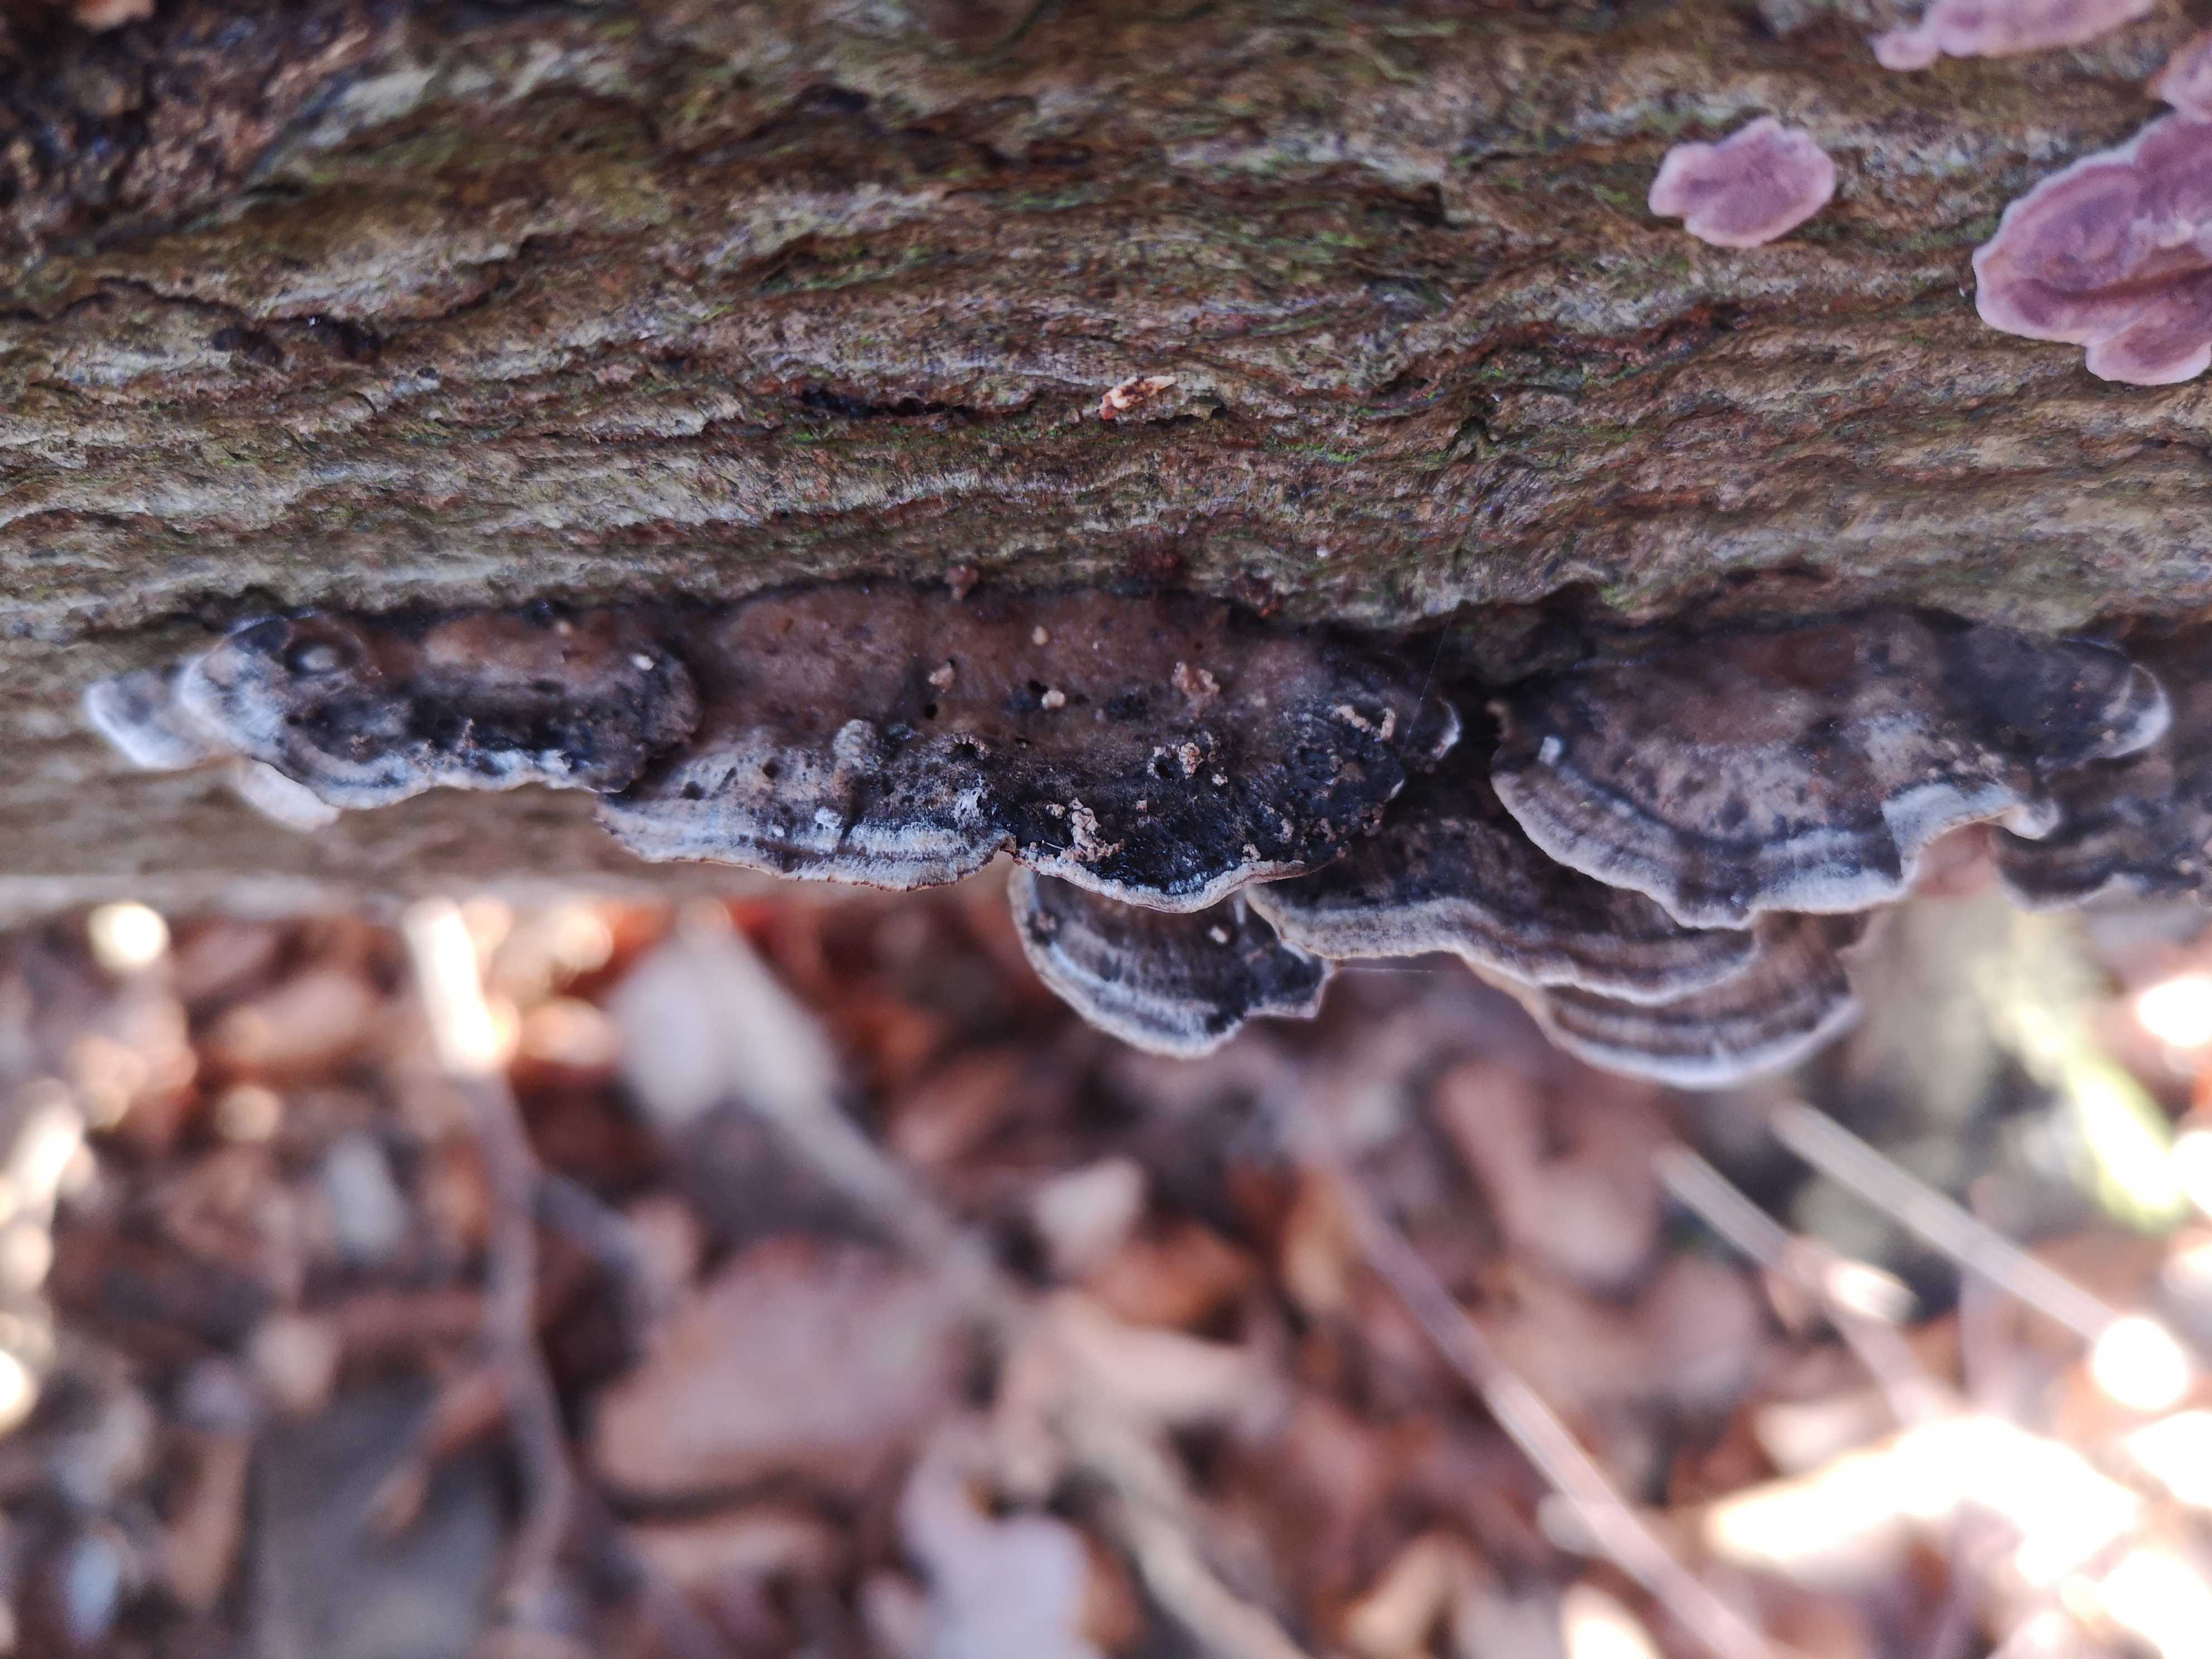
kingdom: Fungi
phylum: Basidiomycota
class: Agaricomycetes
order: Polyporales
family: Phanerochaetaceae
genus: Bjerkandera
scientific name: Bjerkandera adusta
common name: sveden sodporesvamp
